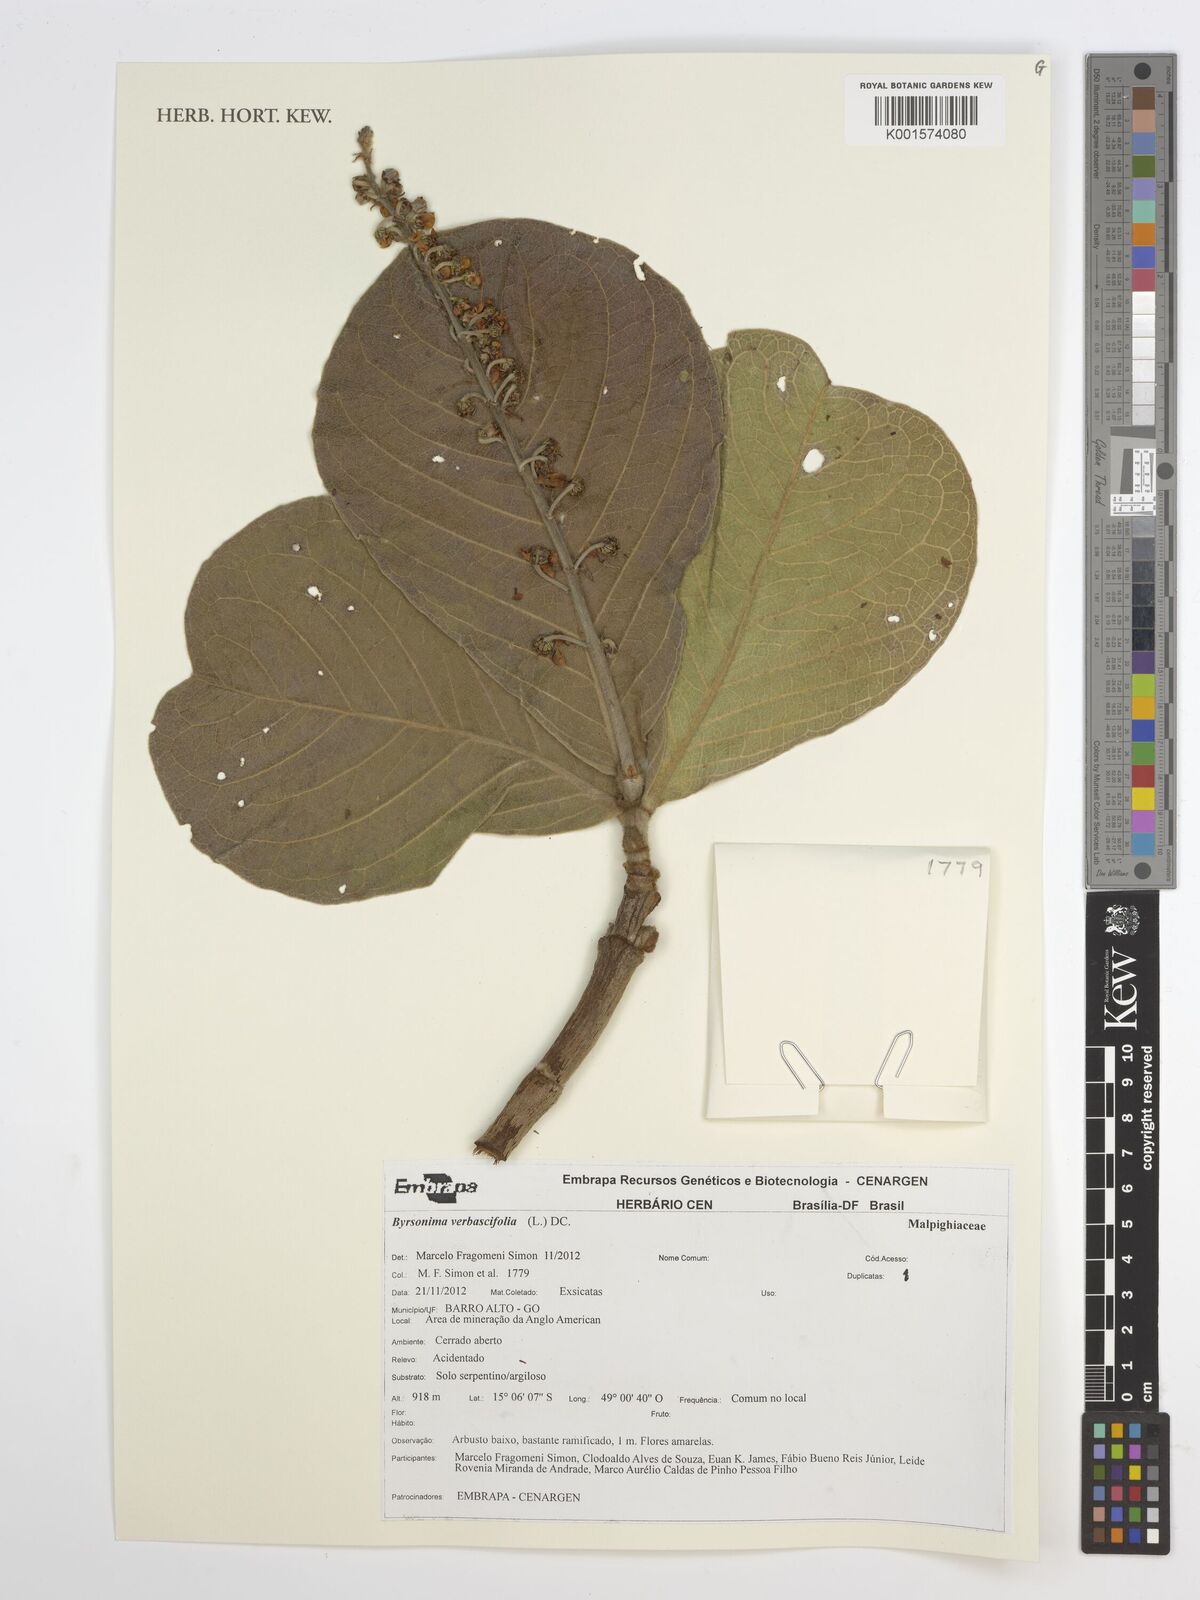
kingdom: Plantae
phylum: Tracheophyta
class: Magnoliopsida
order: Malpighiales
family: Malpighiaceae
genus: Byrsonima
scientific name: Byrsonima verbascifolia
